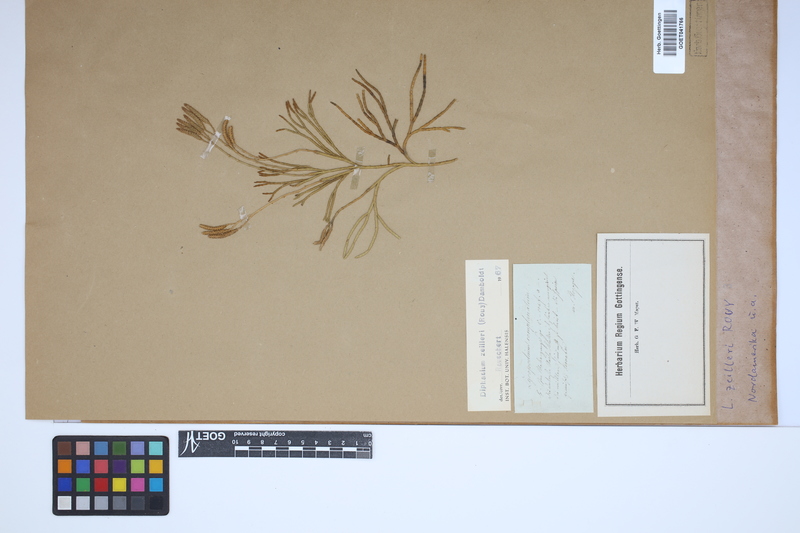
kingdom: Plantae
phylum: Tracheophyta
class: Lycopodiopsida
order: Lycopodiales
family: Lycopodiaceae
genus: Diphasiastrum
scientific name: Diphasiastrum zeilleri
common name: Zeiller's clubmoss
